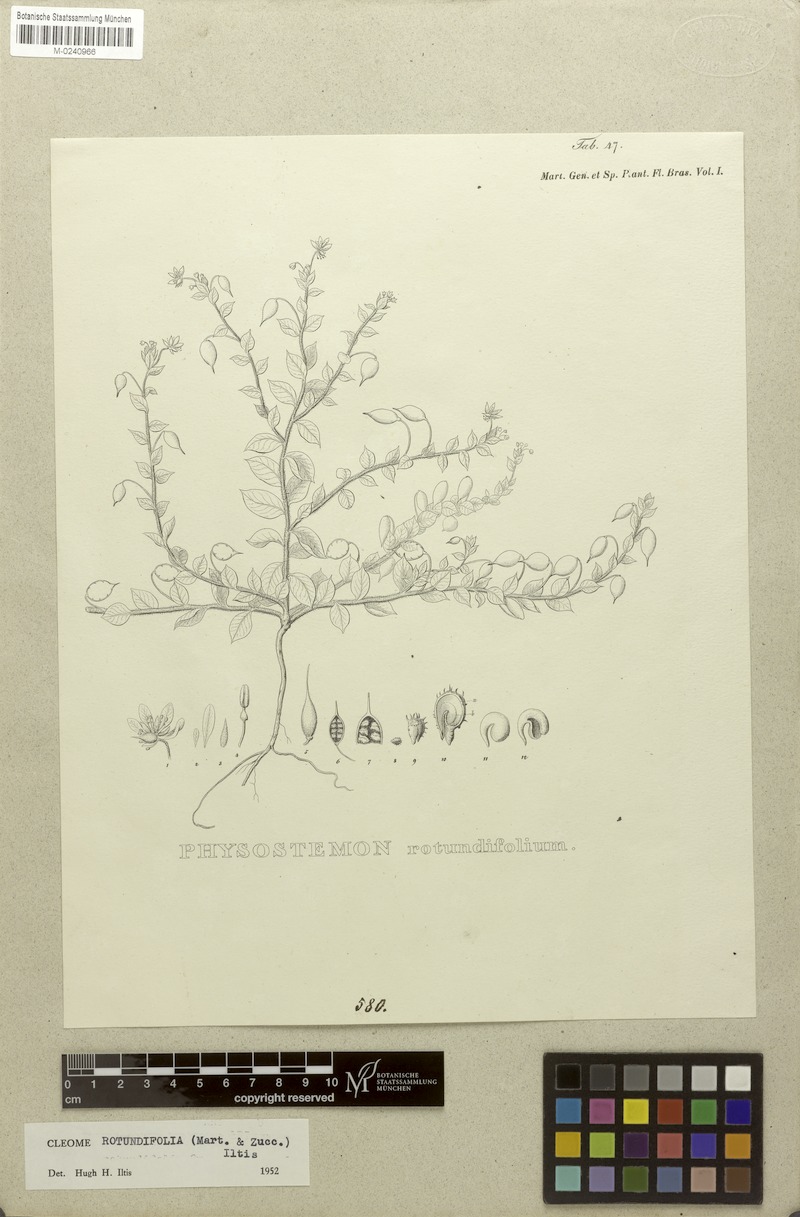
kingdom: Plantae
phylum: Tracheophyta
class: Magnoliopsida
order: Brassicales
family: Cleomaceae
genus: Physostemon
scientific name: Physostemon rotundifolius
